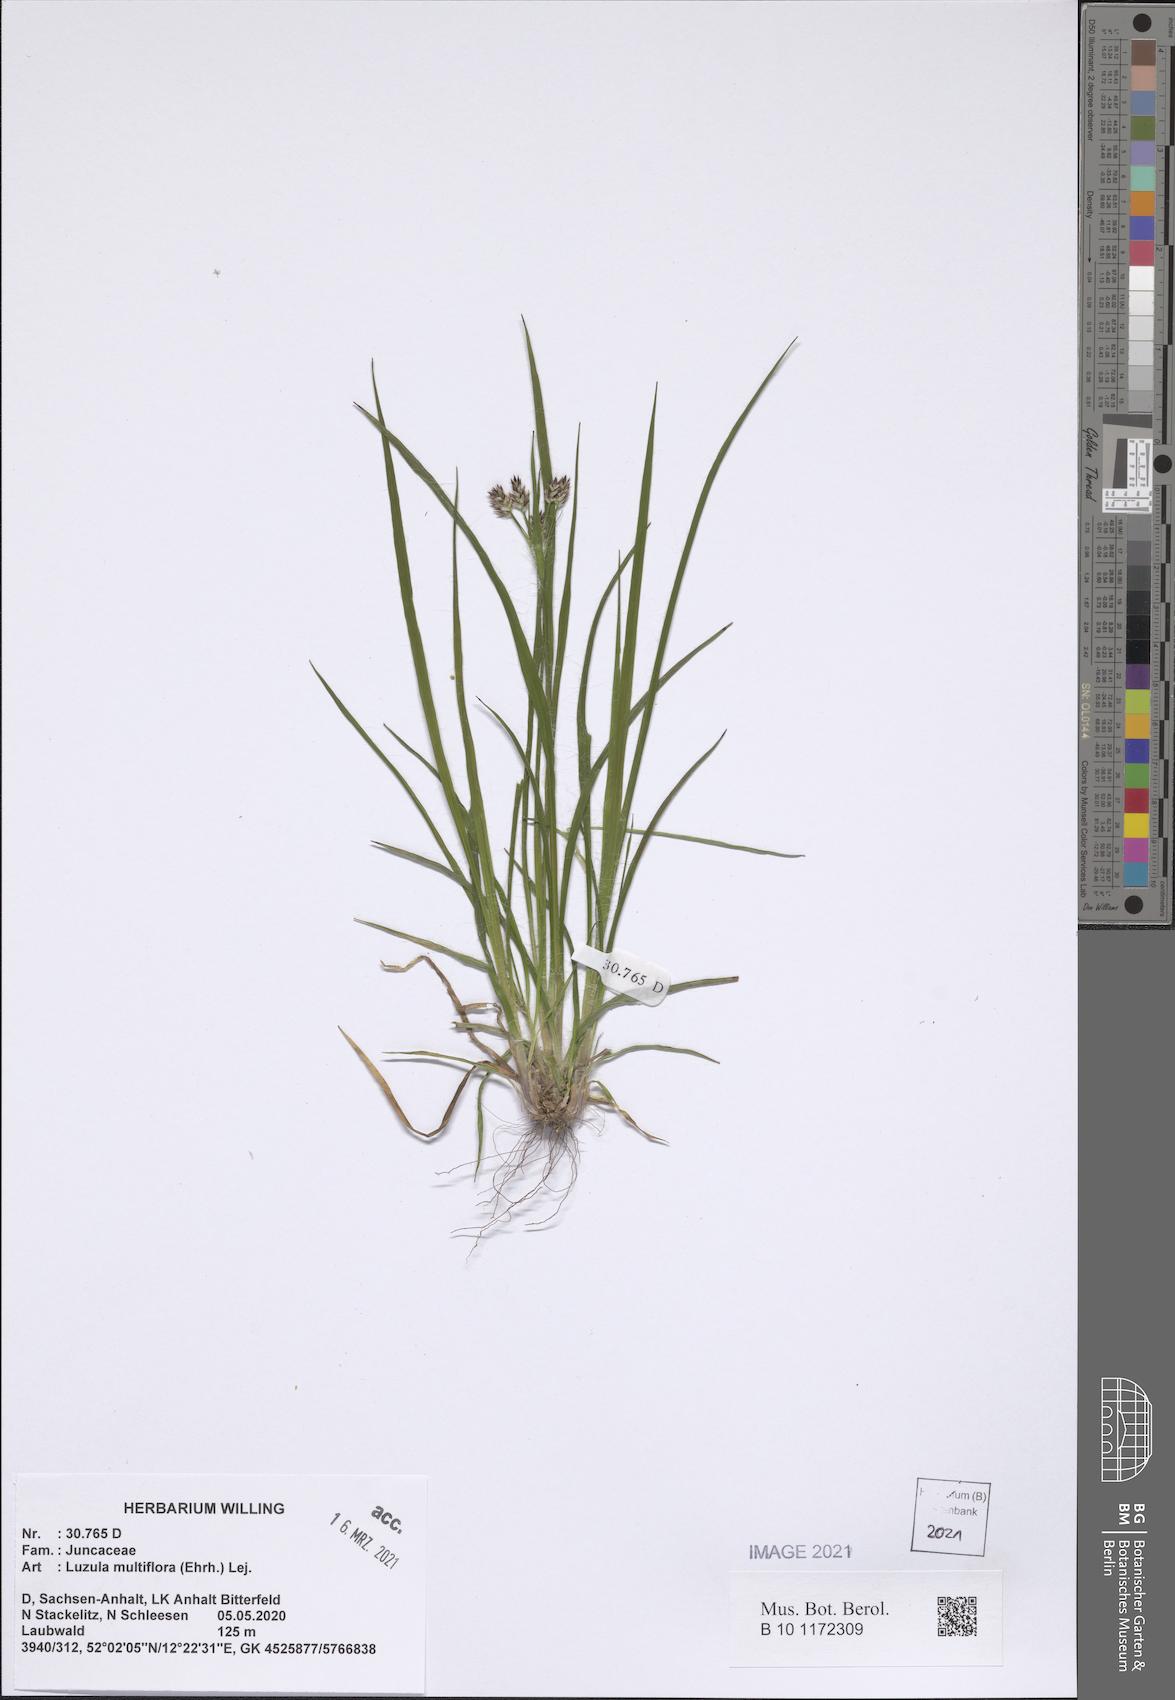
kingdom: Plantae
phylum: Tracheophyta
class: Liliopsida
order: Poales
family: Juncaceae
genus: Luzula
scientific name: Luzula multiflora
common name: Heath wood-rush
